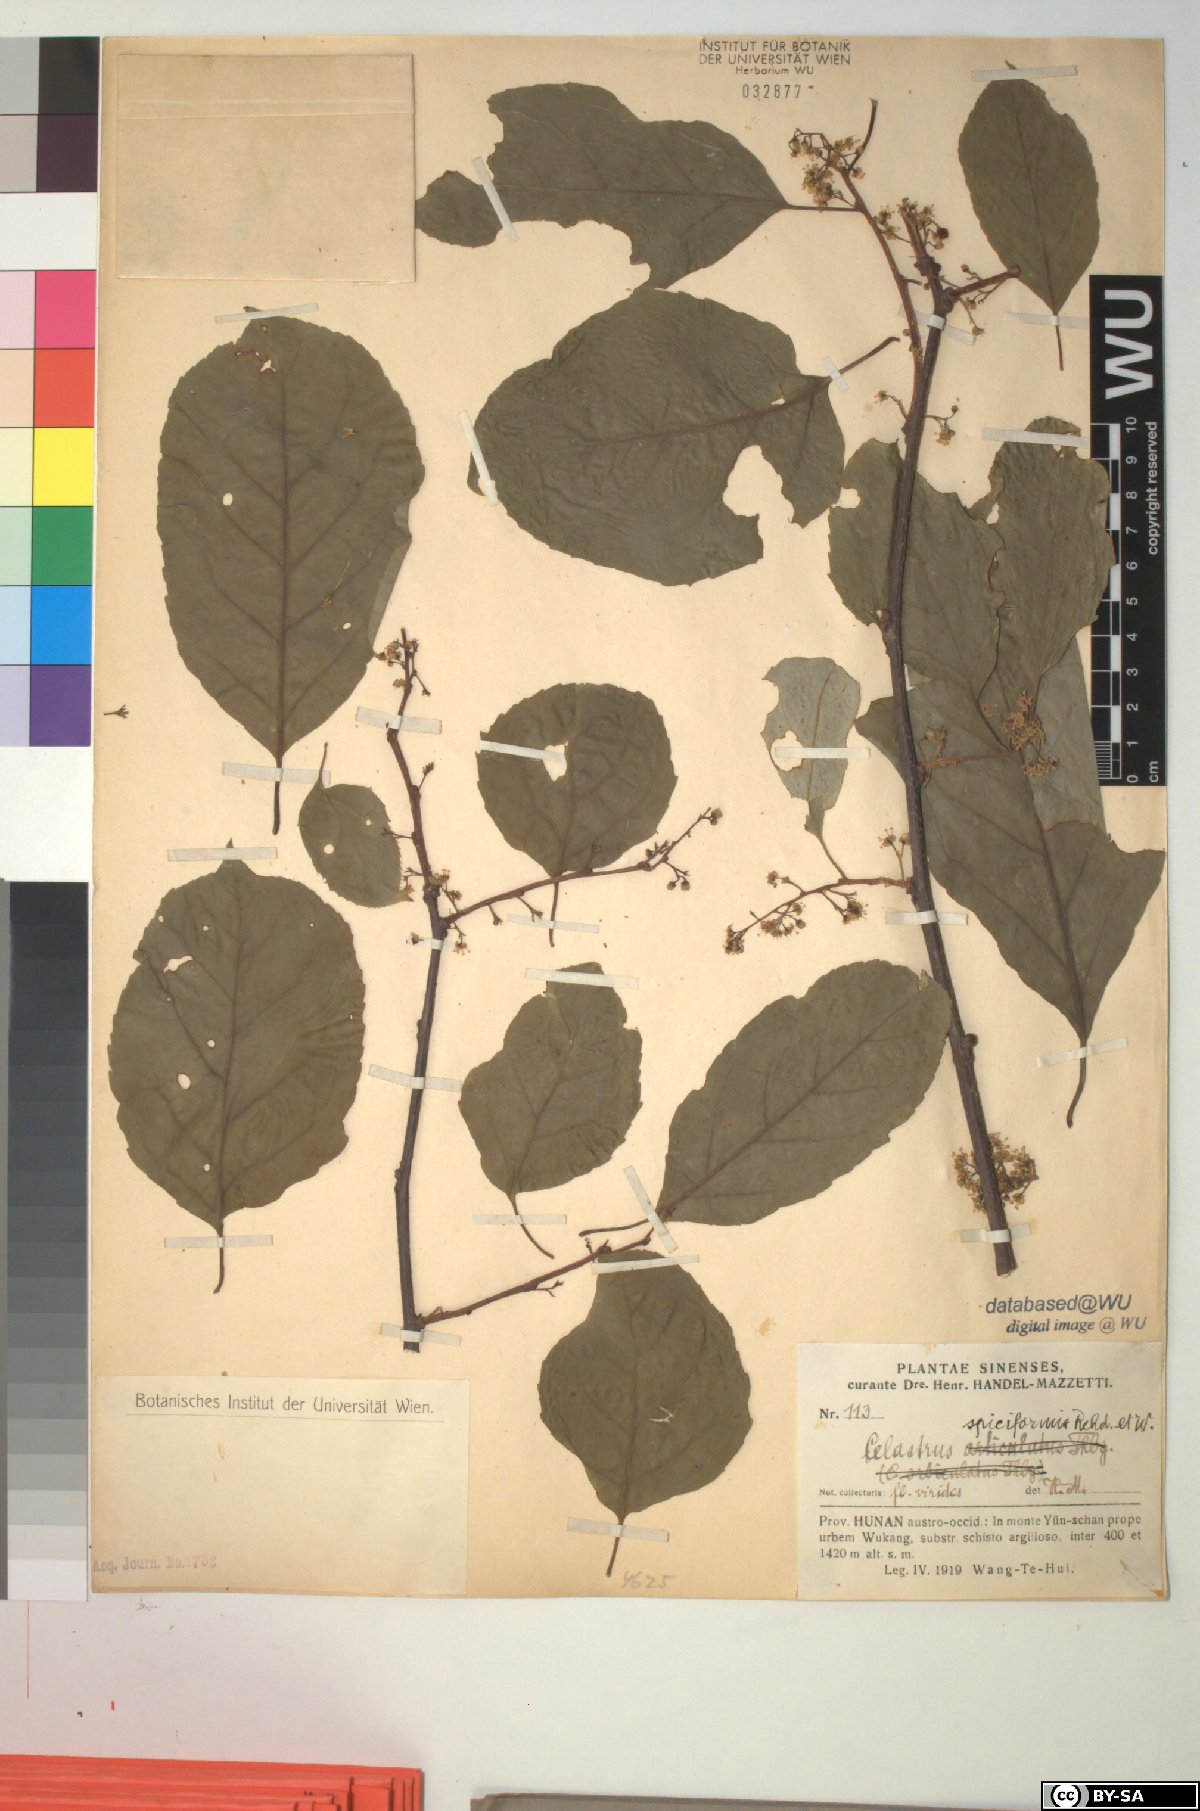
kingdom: Plantae
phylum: Tracheophyta
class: Magnoliopsida
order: Celastrales
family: Celastraceae
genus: Celastrus
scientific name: Celastrus vaniotii
